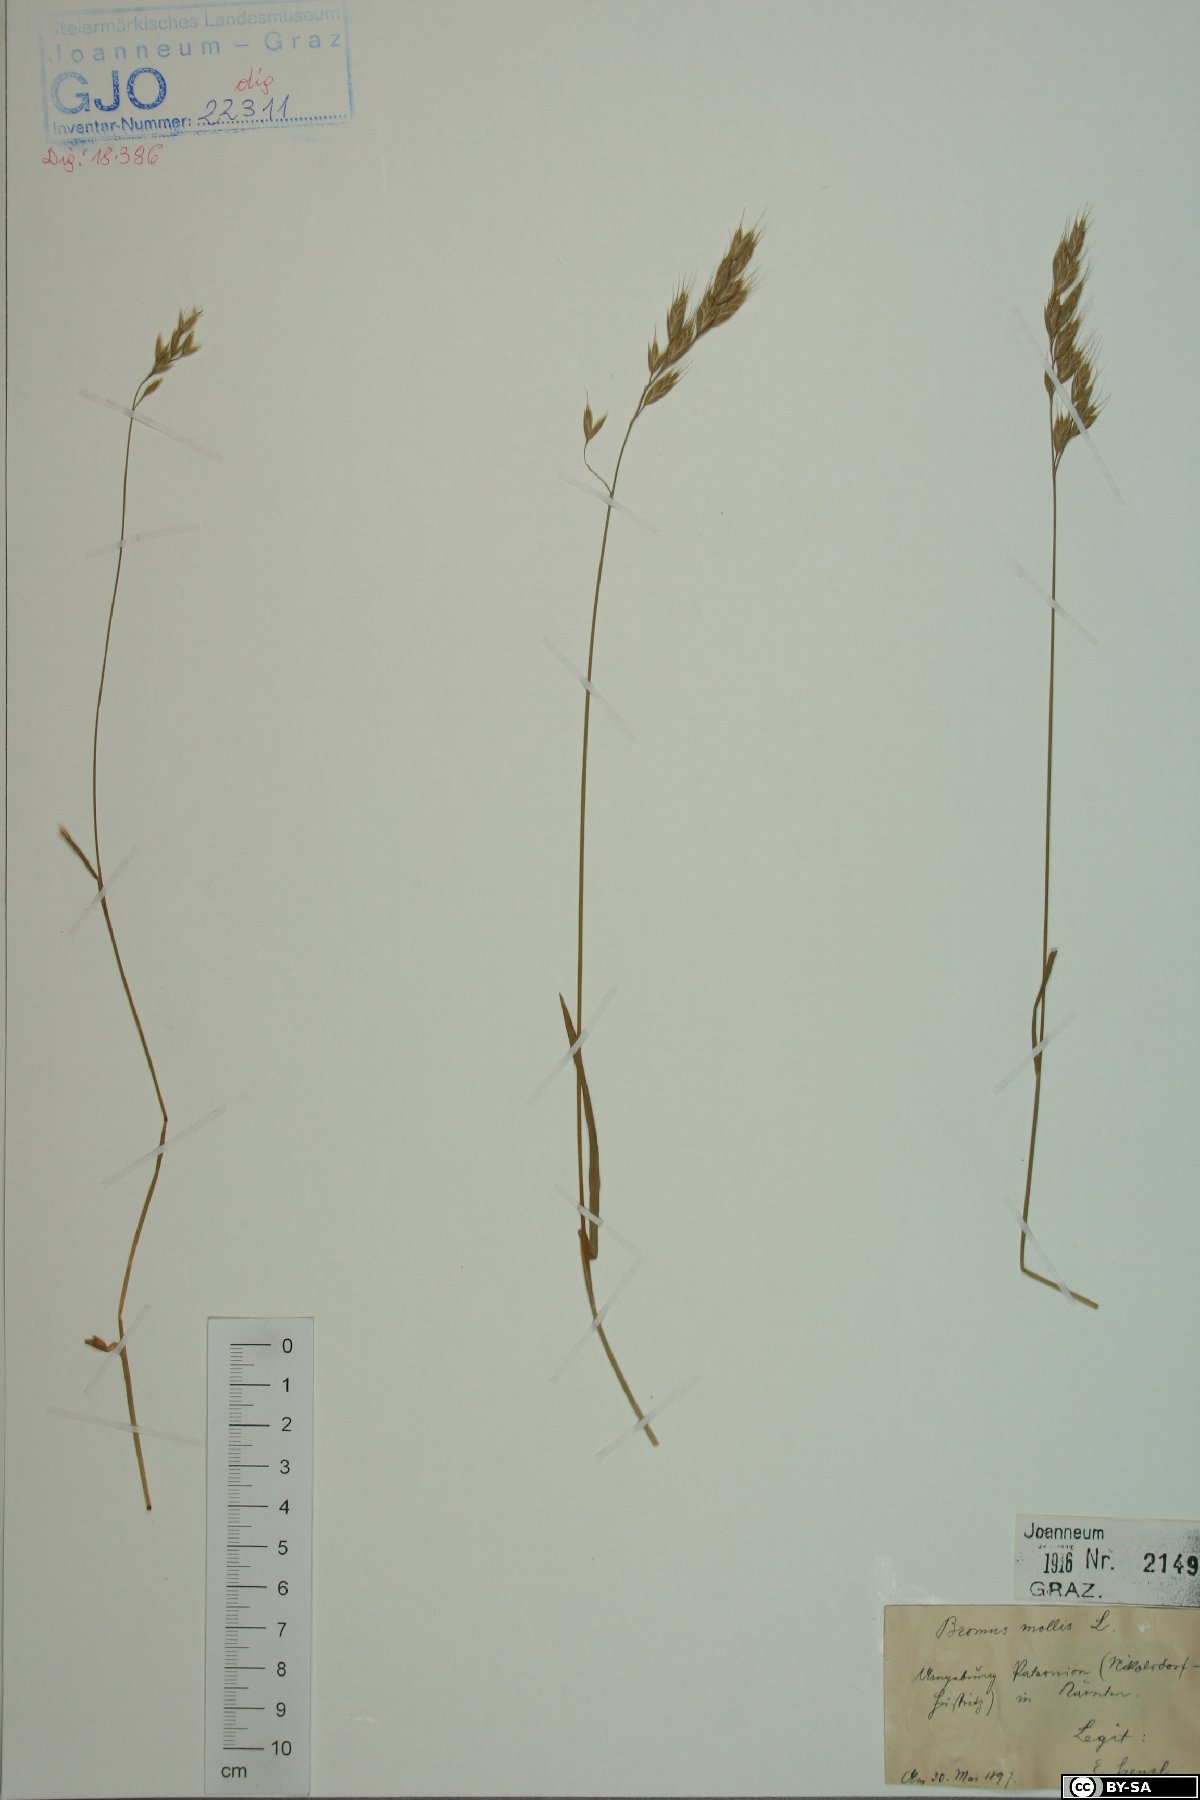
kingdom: Plantae
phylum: Tracheophyta
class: Liliopsida
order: Poales
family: Poaceae
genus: Bromus
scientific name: Bromus hordeaceus
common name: Soft brome
